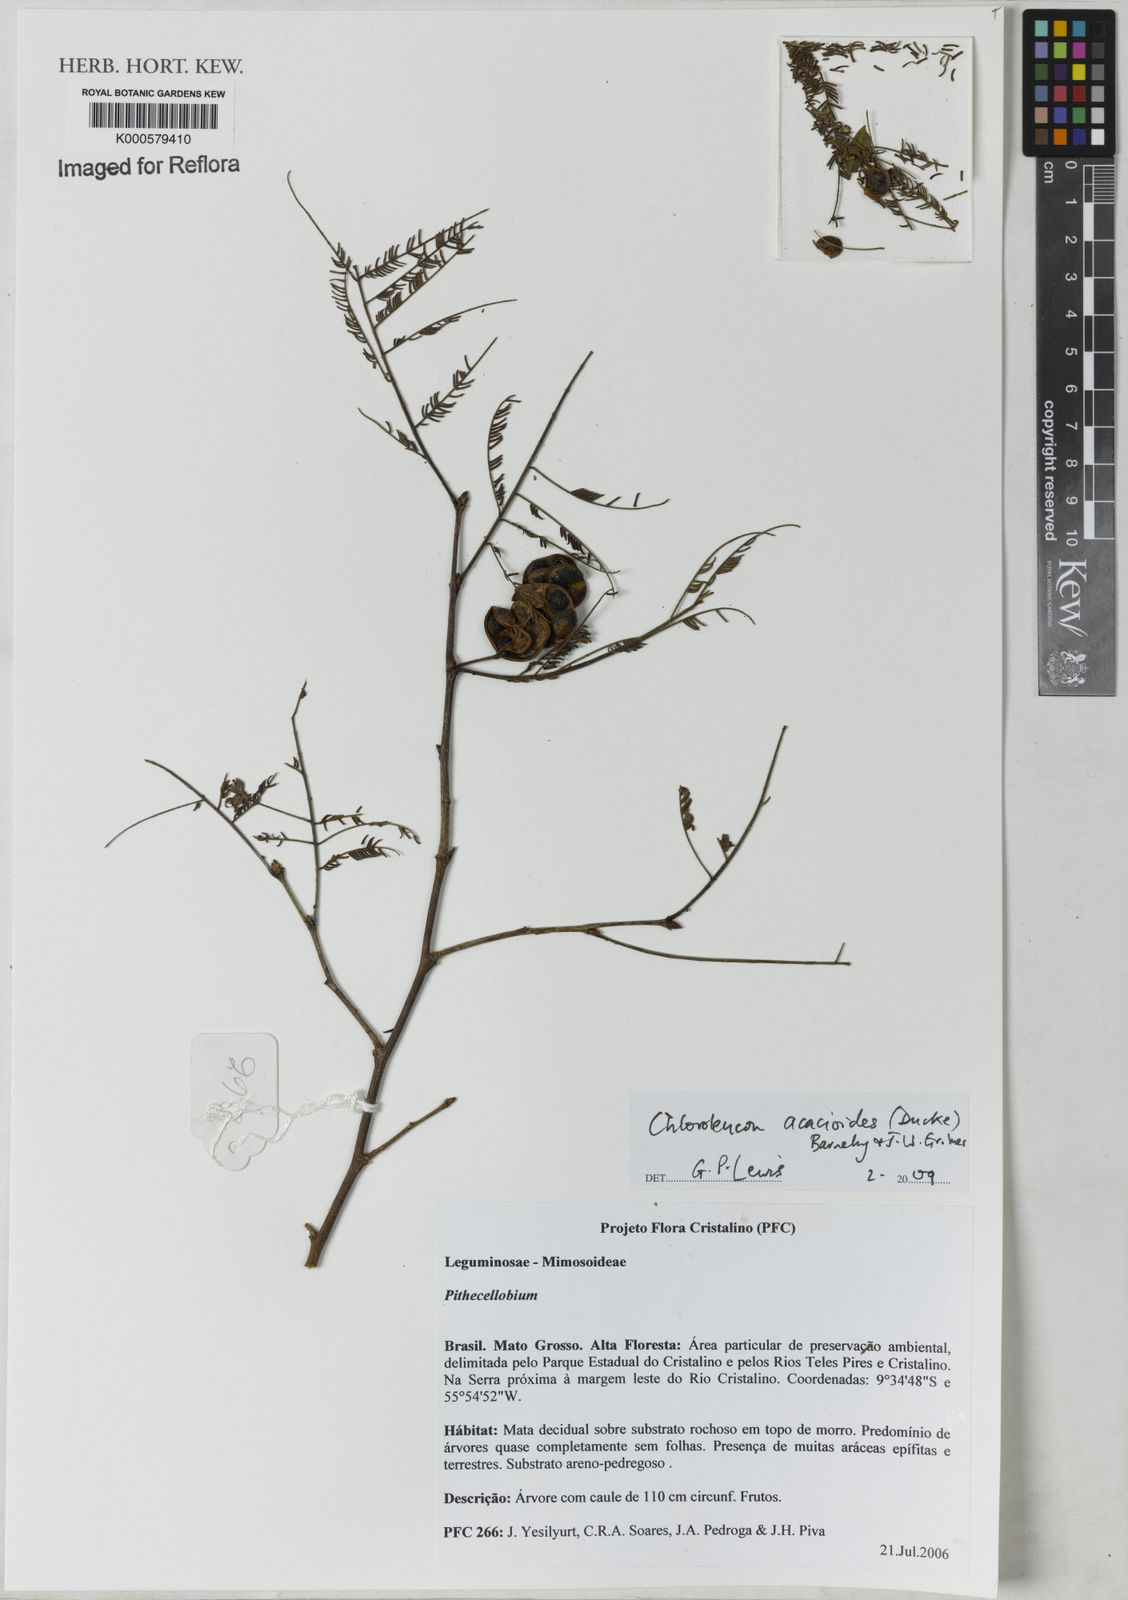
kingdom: Plantae
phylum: Tracheophyta
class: Magnoliopsida
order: Fabales
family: Fabaceae
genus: Chloroleucon
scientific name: Chloroleucon acacioides
